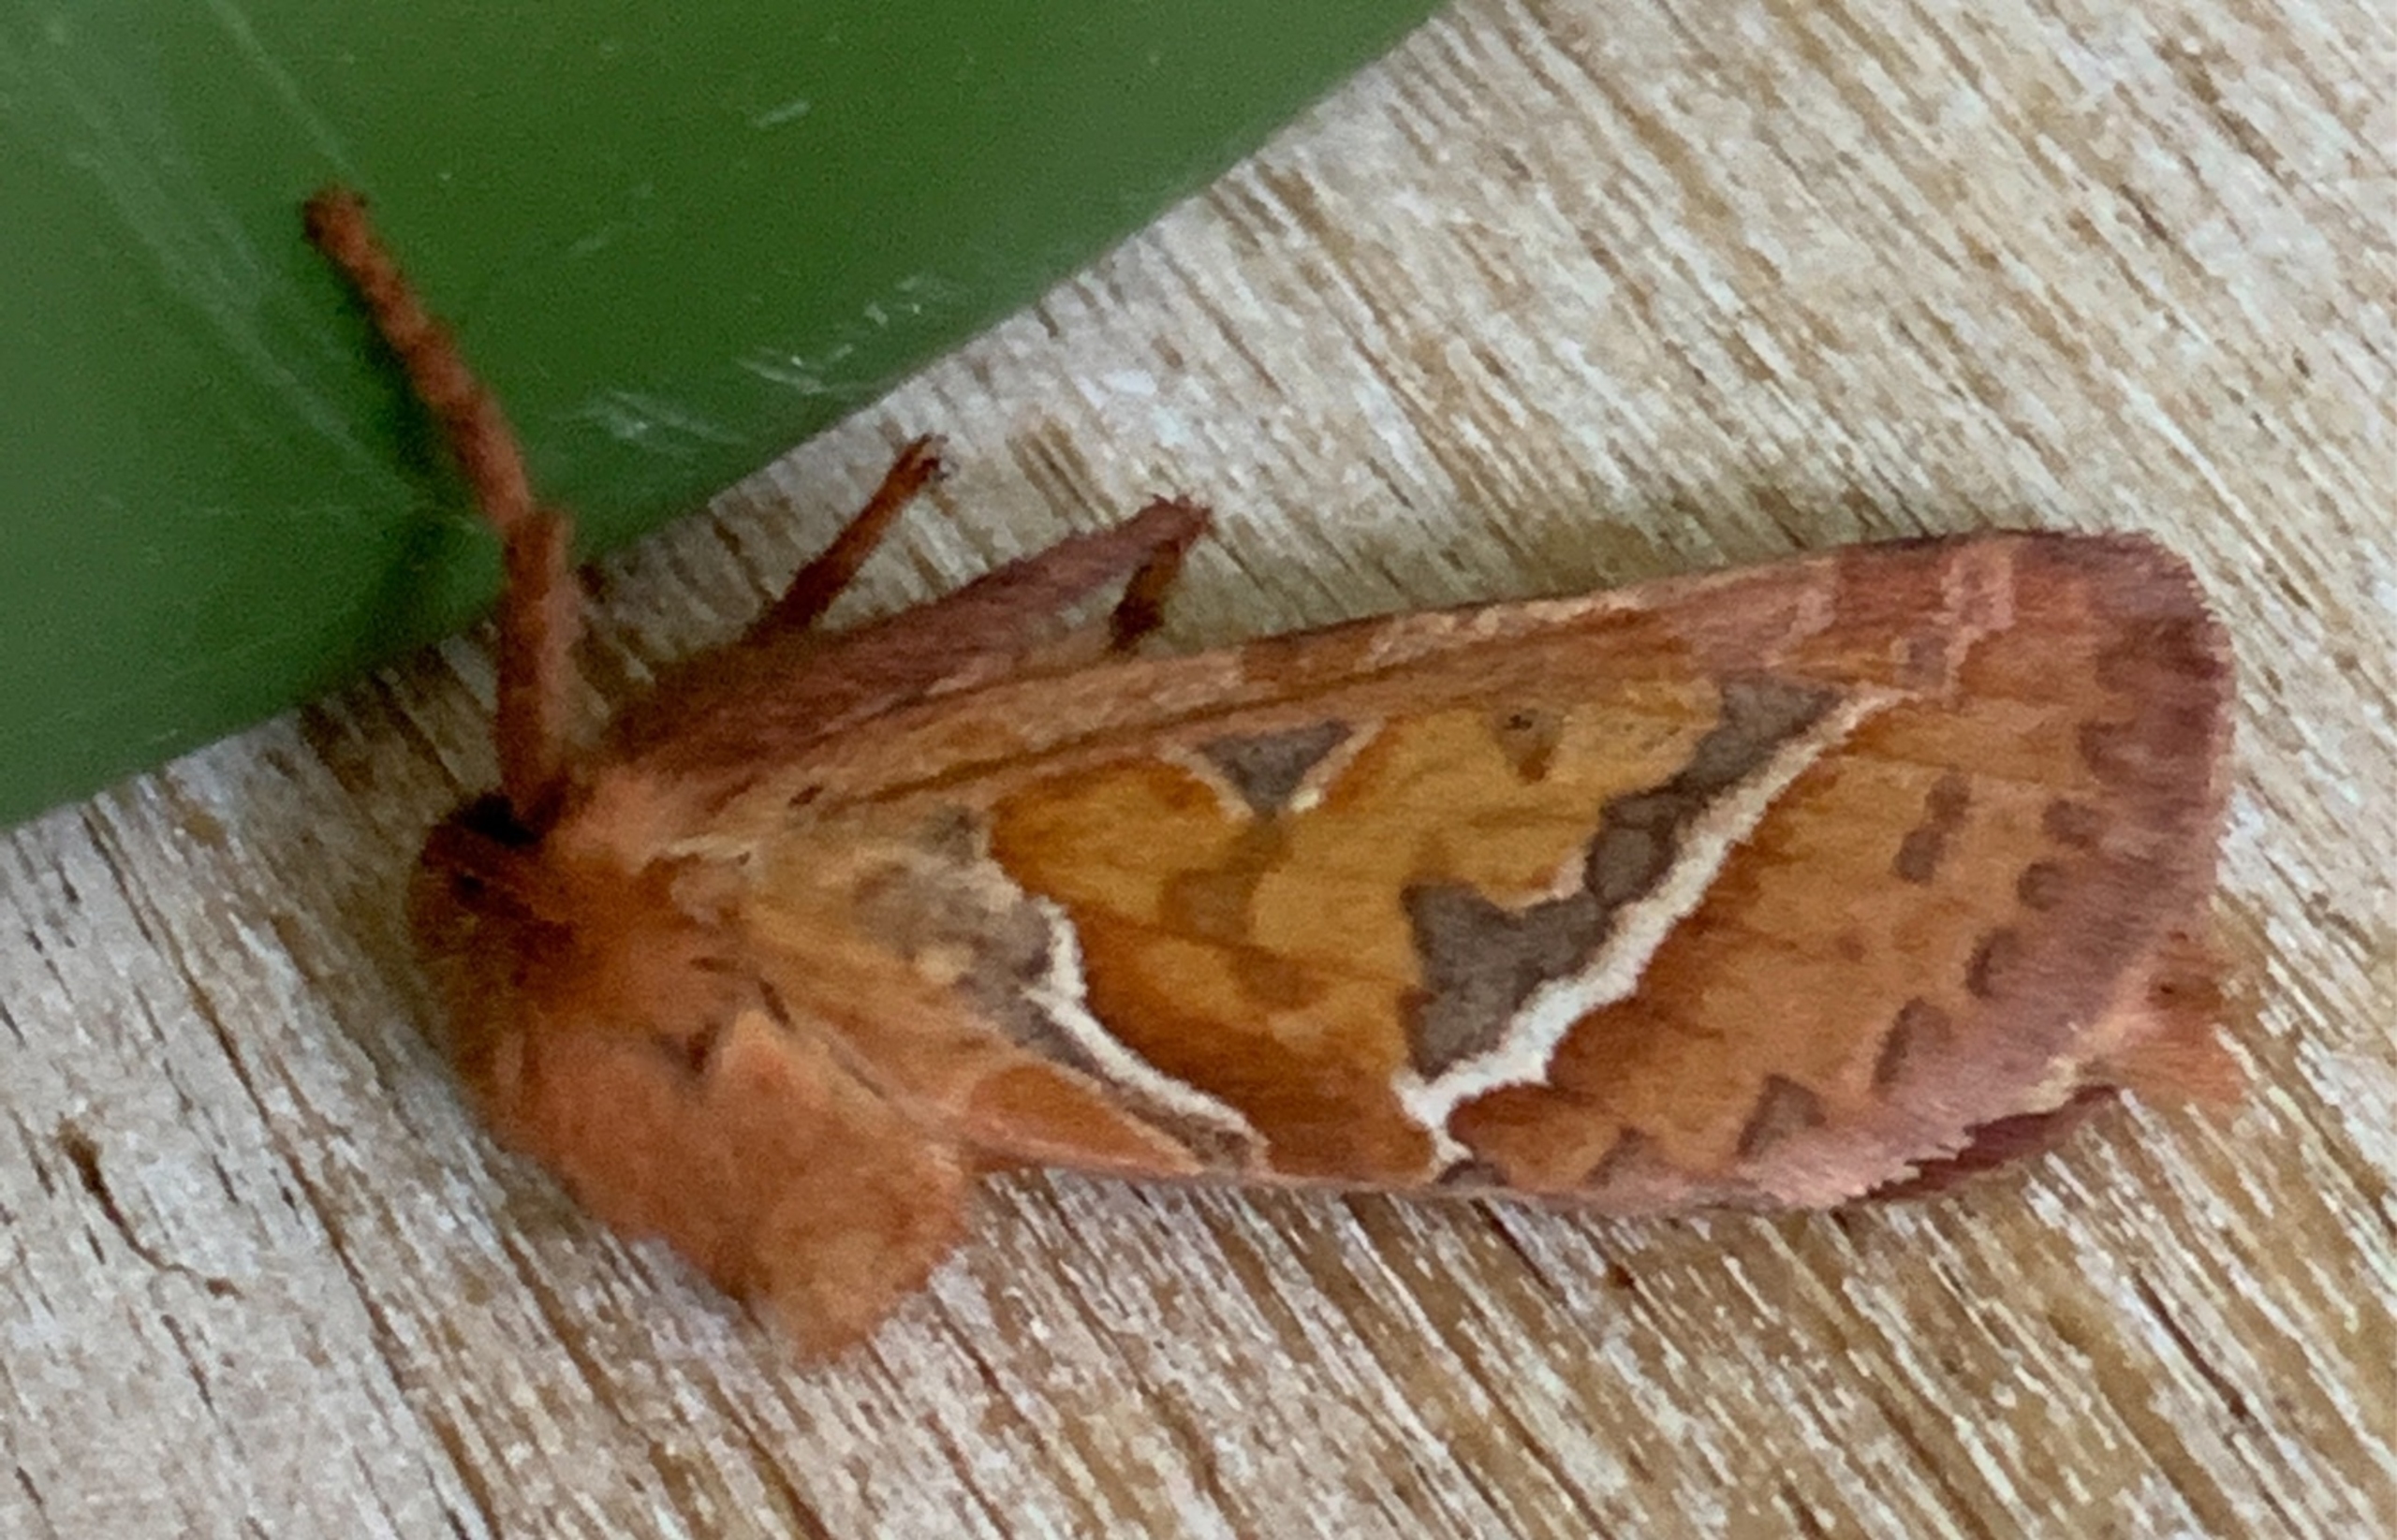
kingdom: Animalia
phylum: Arthropoda
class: Insecta
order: Lepidoptera
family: Hepialidae
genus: Triodia
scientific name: Triodia sylvina
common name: Skræpperodæder
